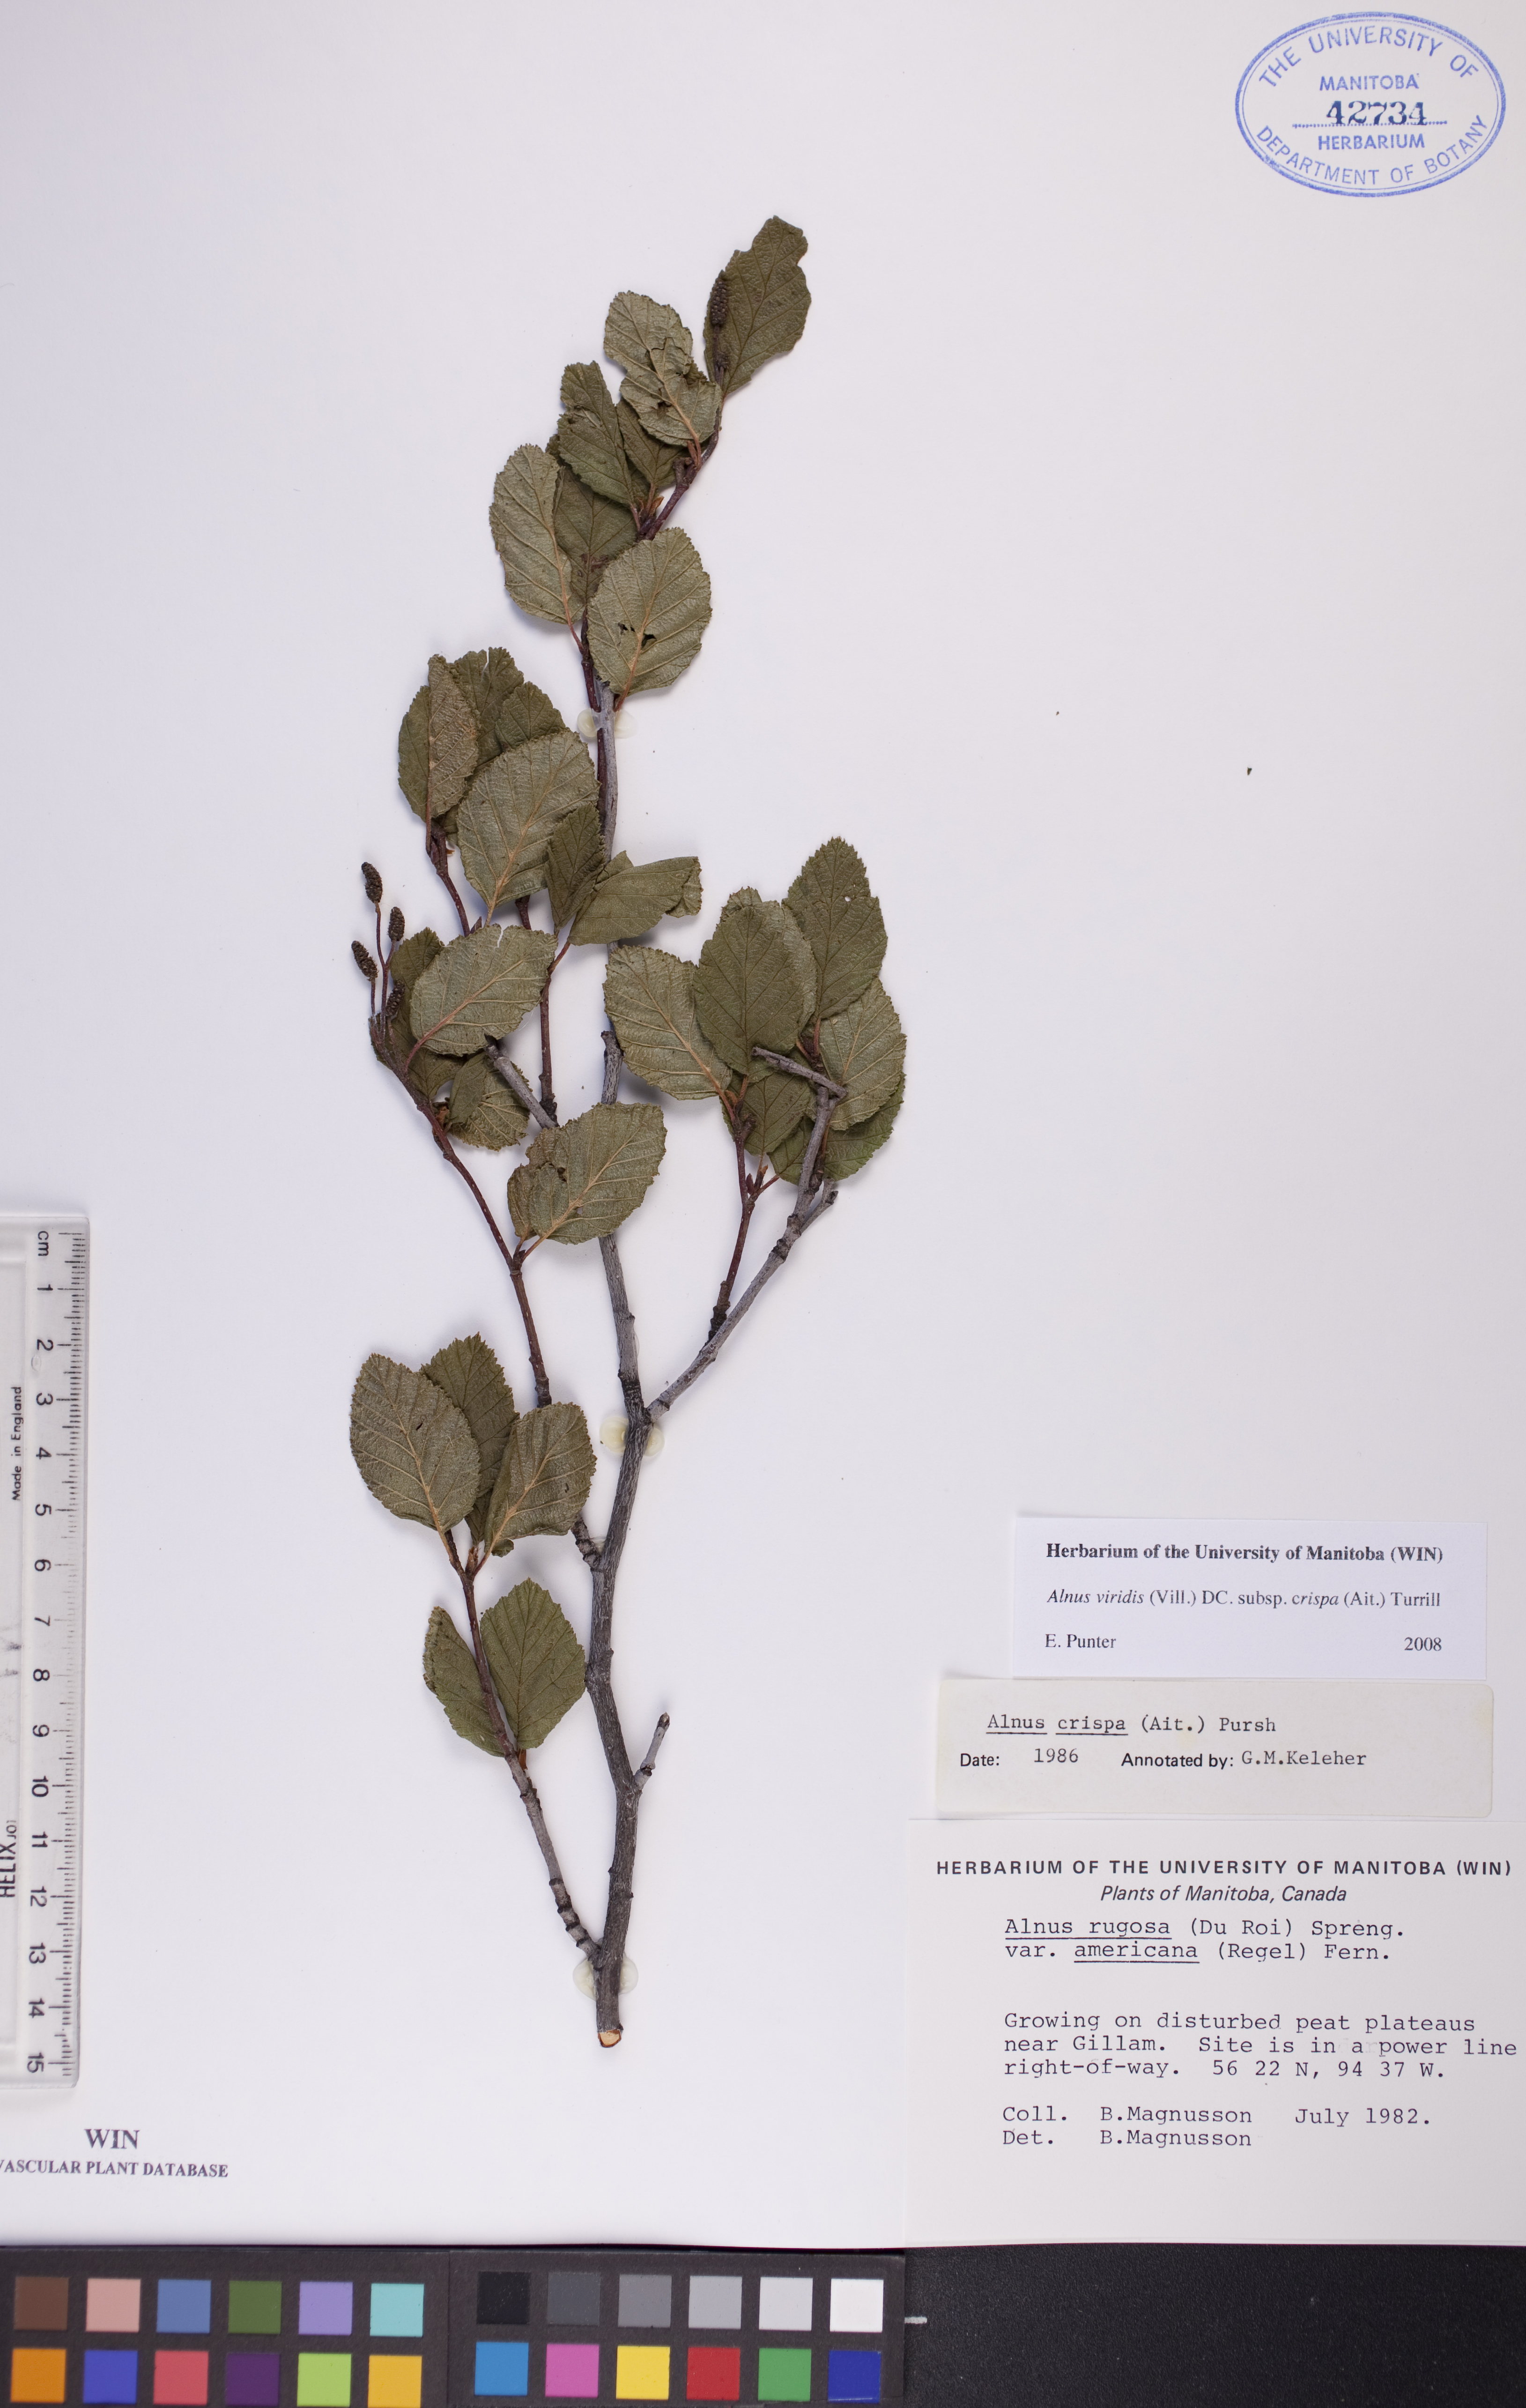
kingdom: Plantae
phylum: Tracheophyta
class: Magnoliopsida
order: Fagales
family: Betulaceae
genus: Alnus
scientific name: Alnus alnobetula
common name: Green alder
